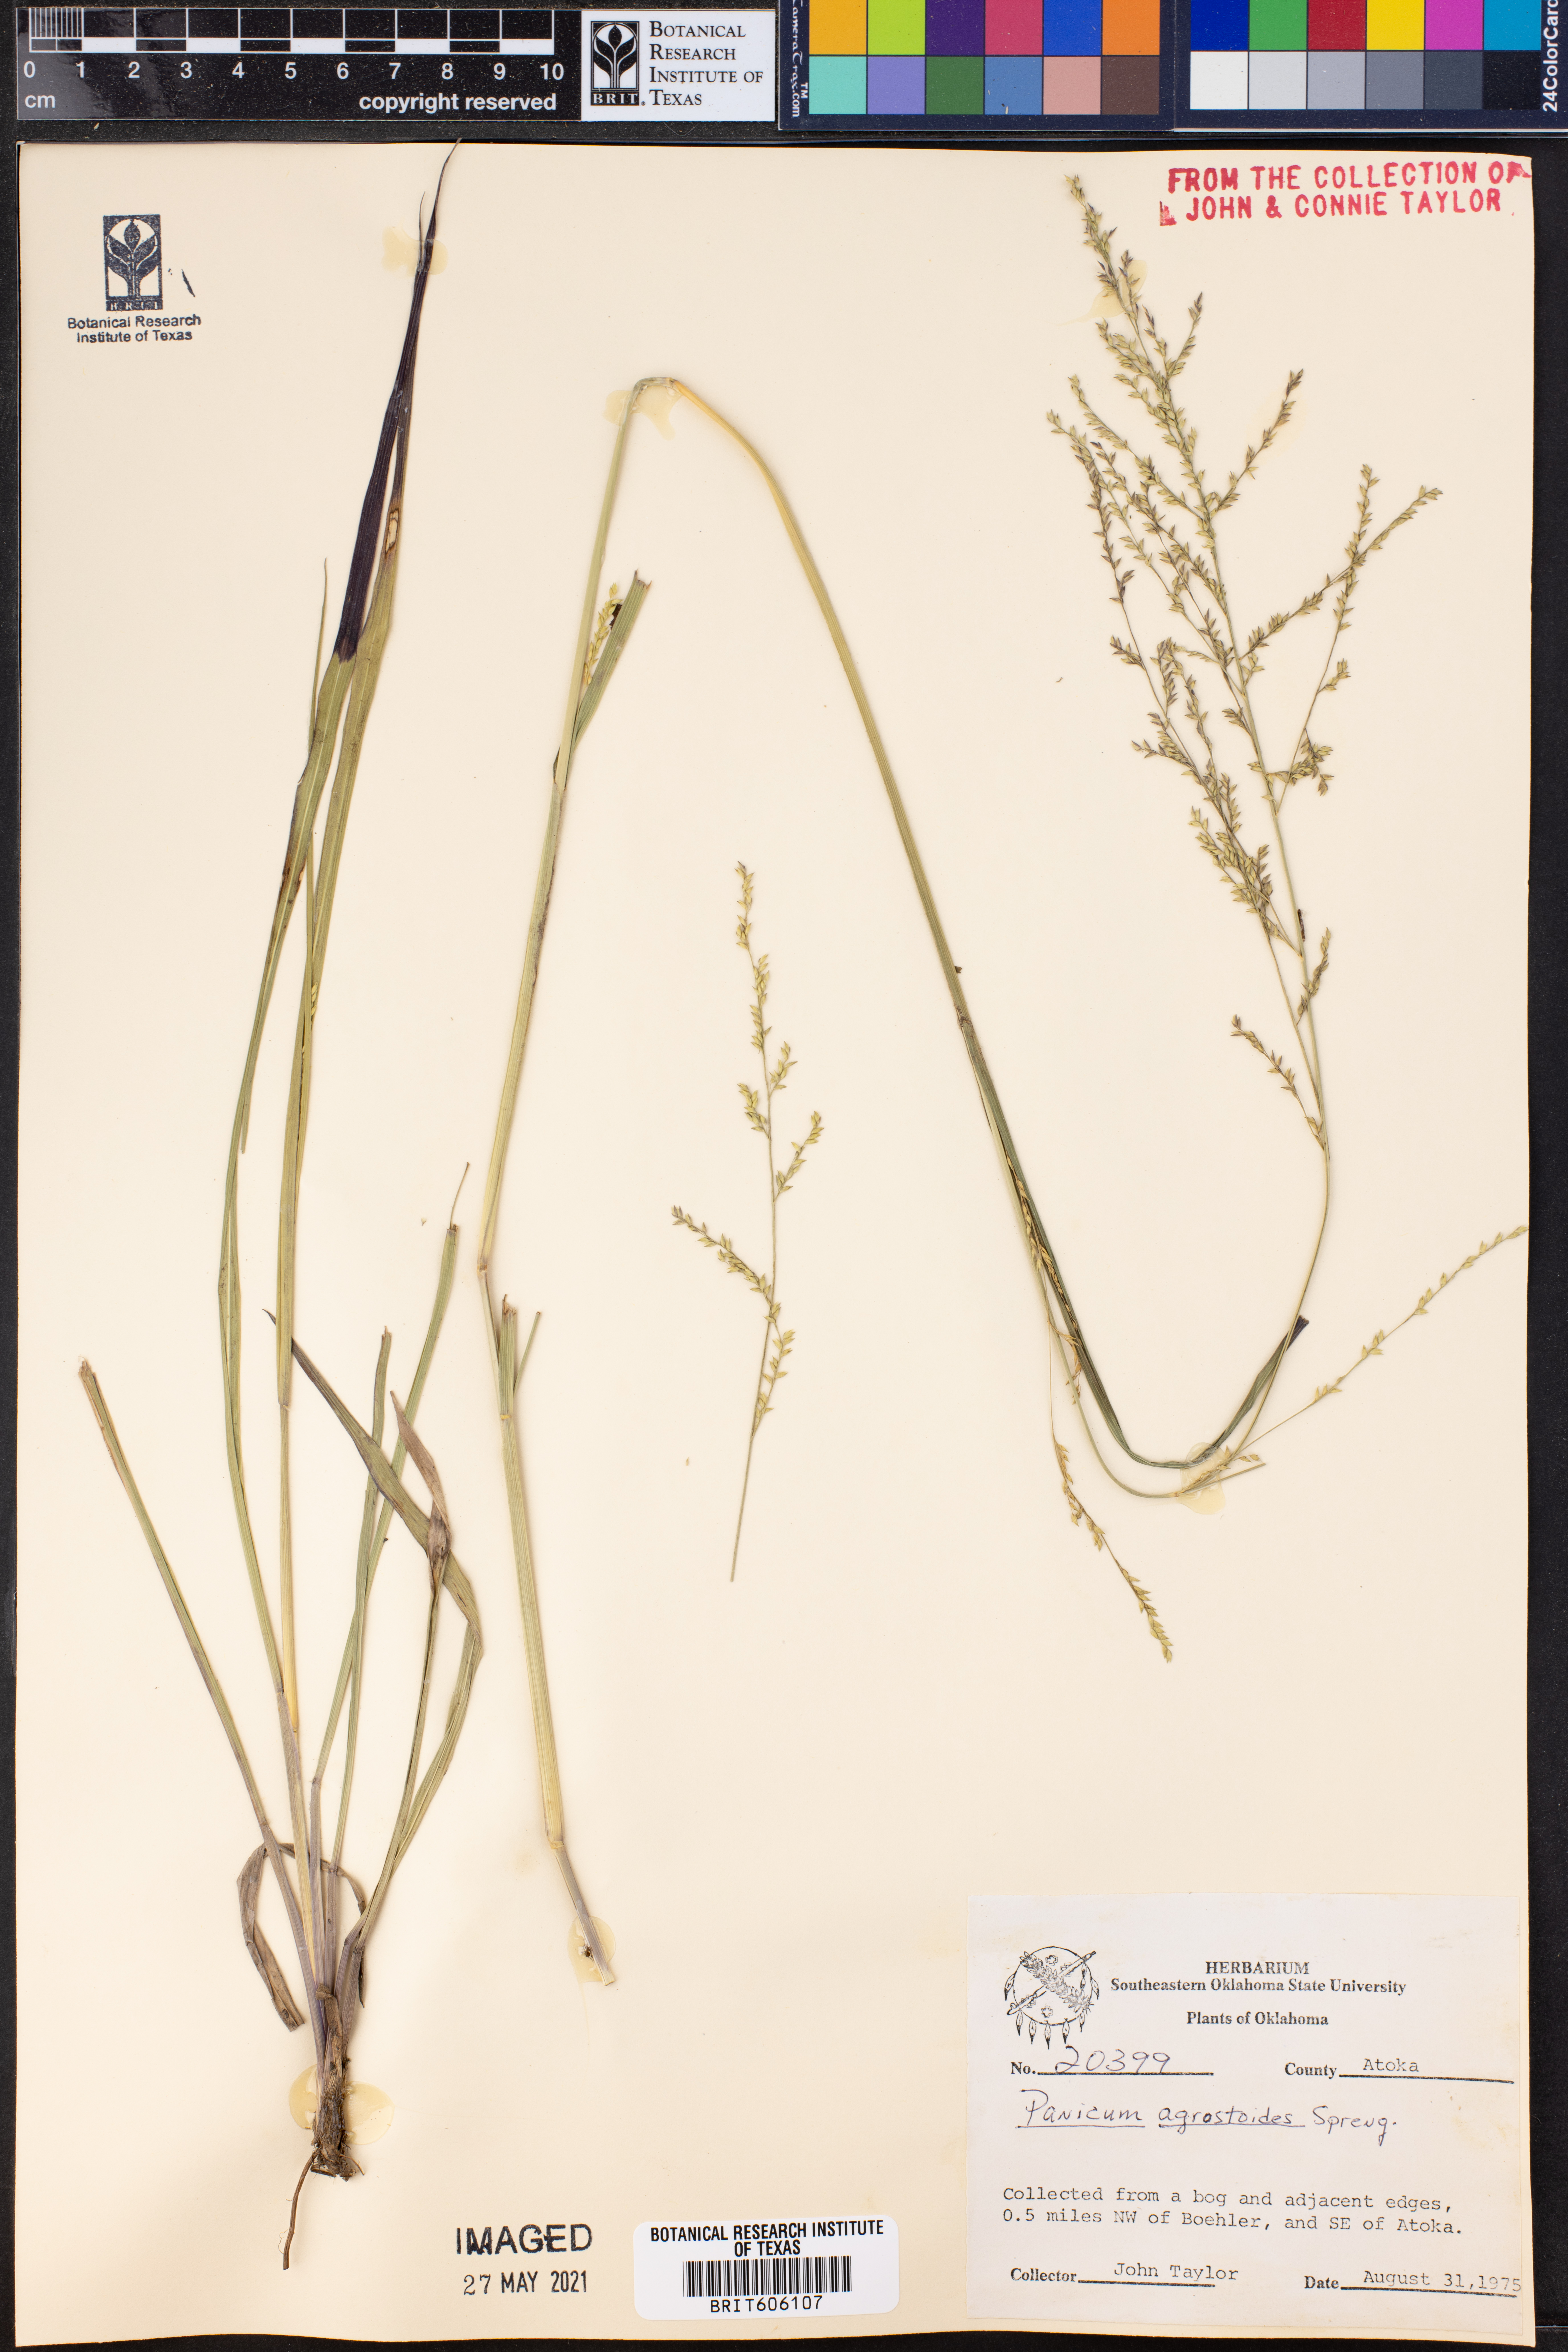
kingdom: Plantae
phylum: Tracheophyta
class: Liliopsida
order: Poales
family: Poaceae
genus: Steinchisma
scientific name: Steinchisma laxum
